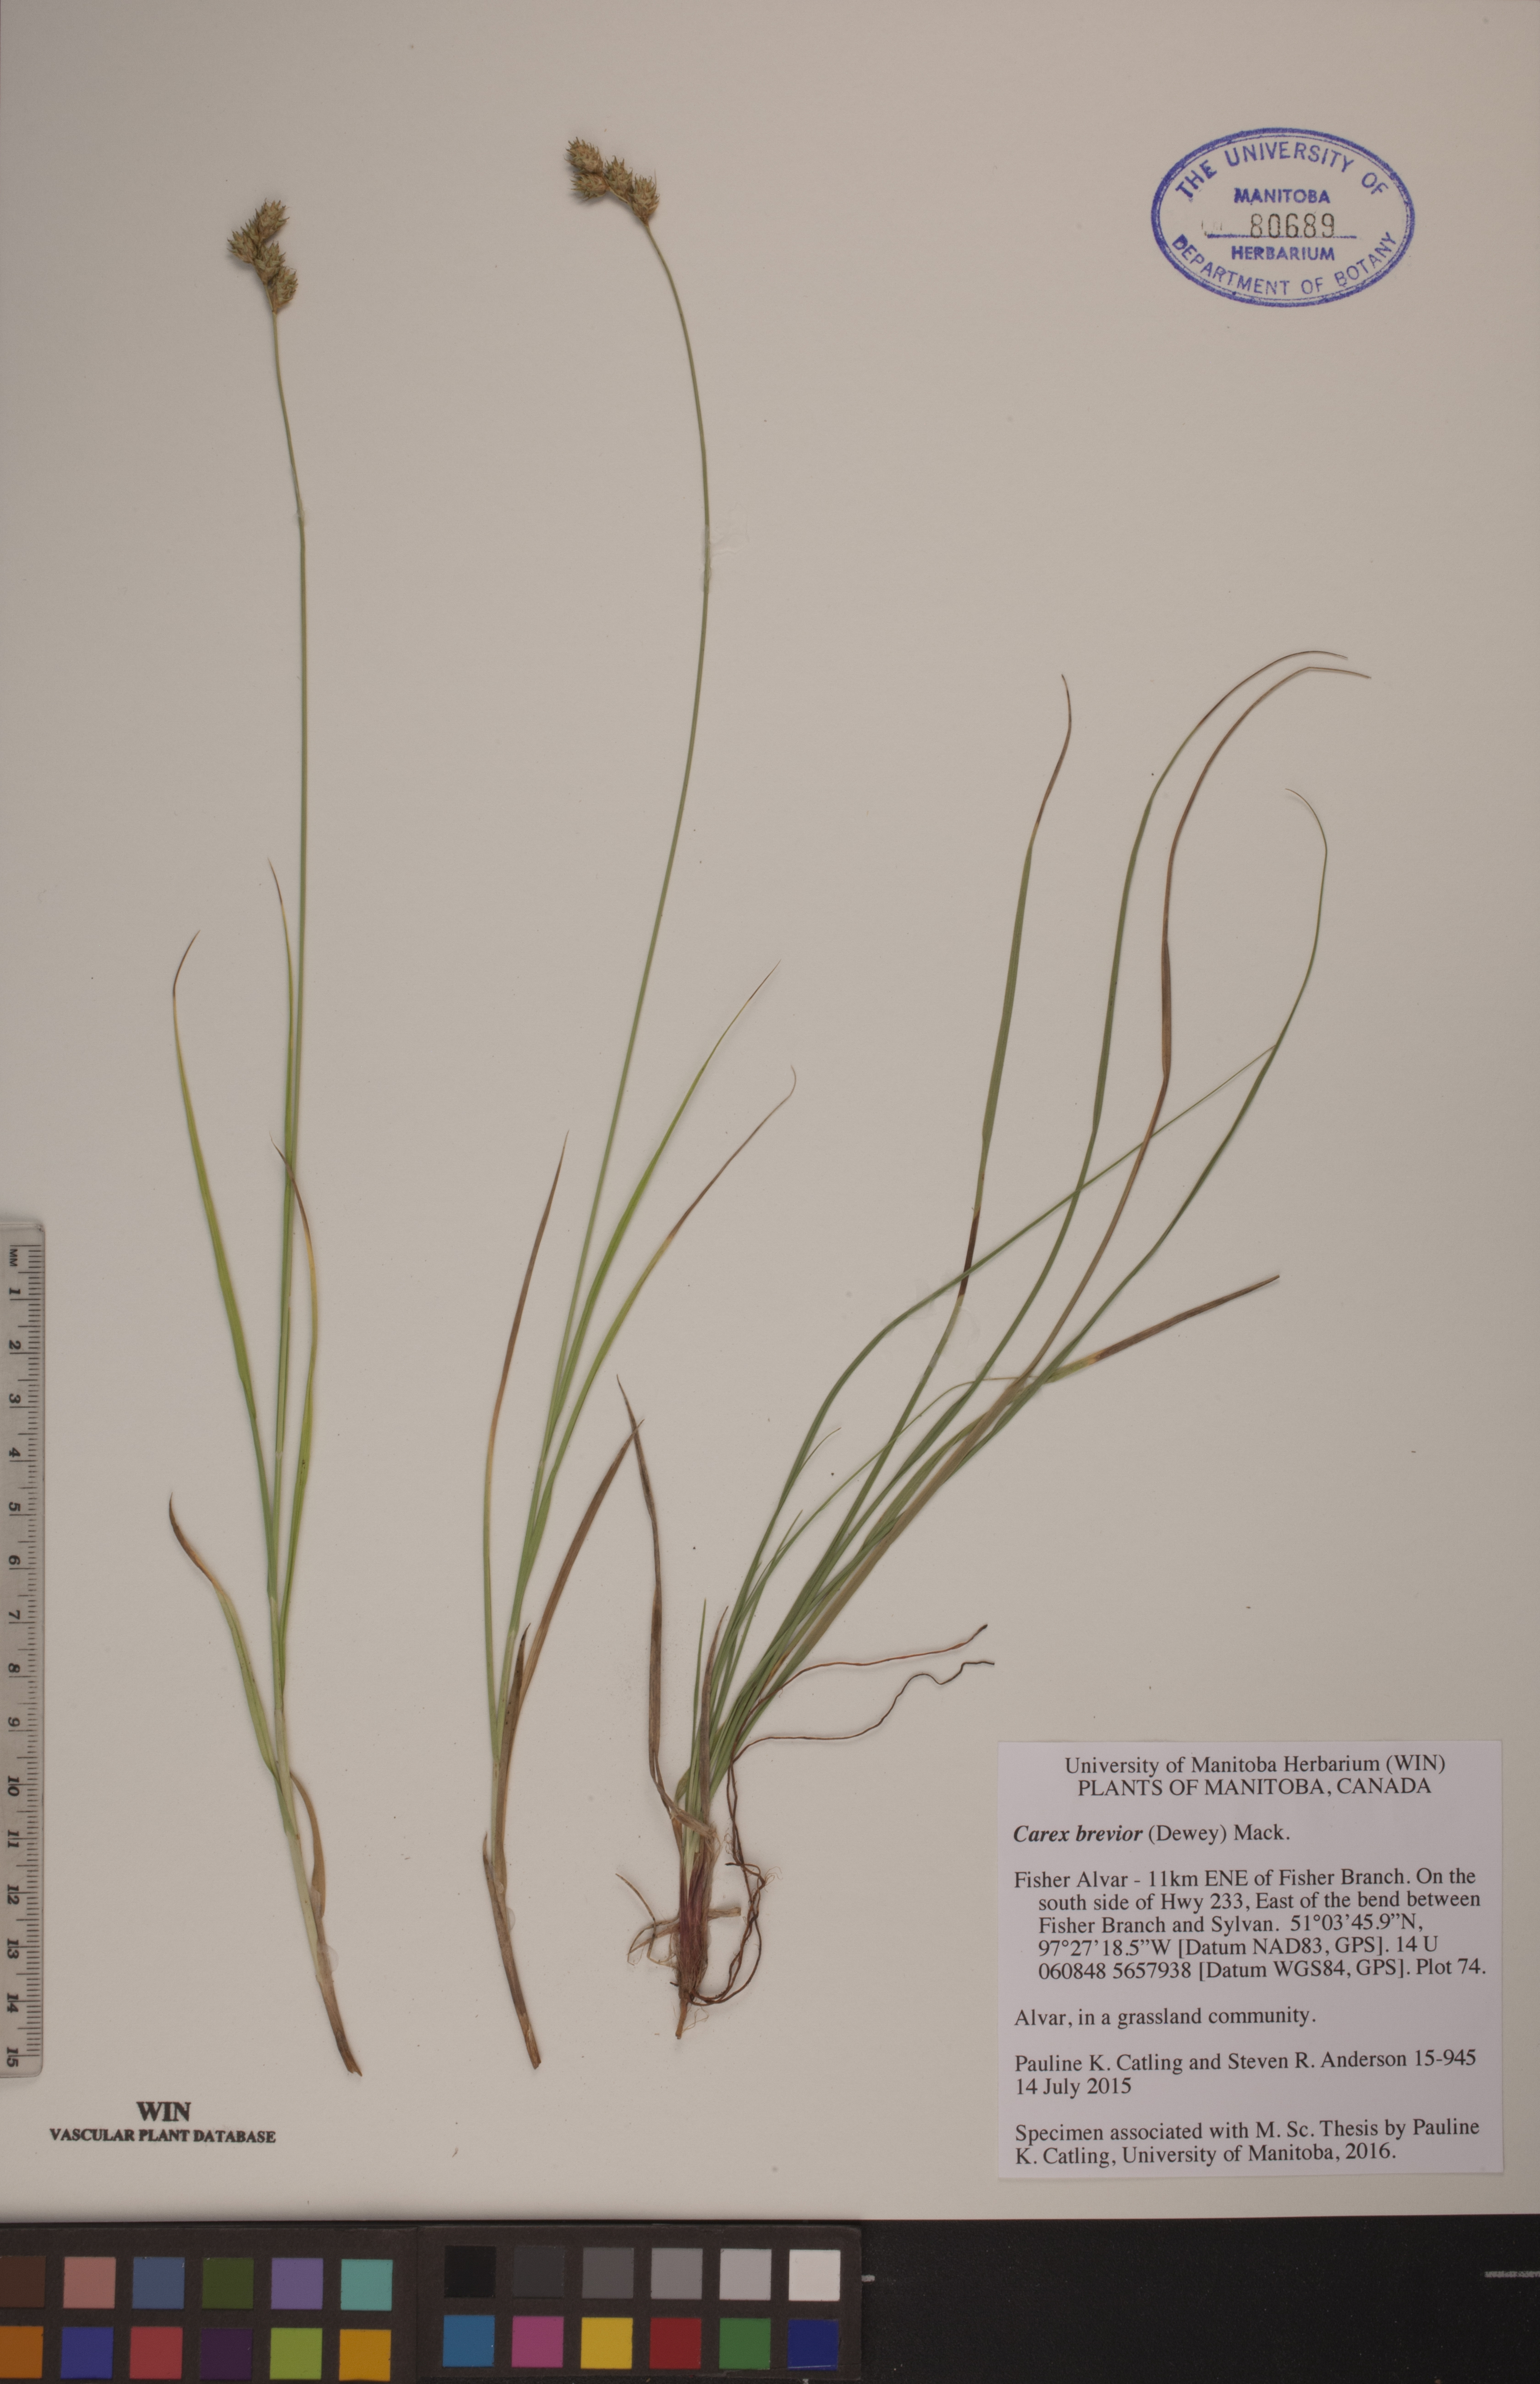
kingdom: Plantae
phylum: Tracheophyta
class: Liliopsida
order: Poales
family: Cyperaceae
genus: Carex
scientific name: Carex brevior
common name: Brevior sedge
